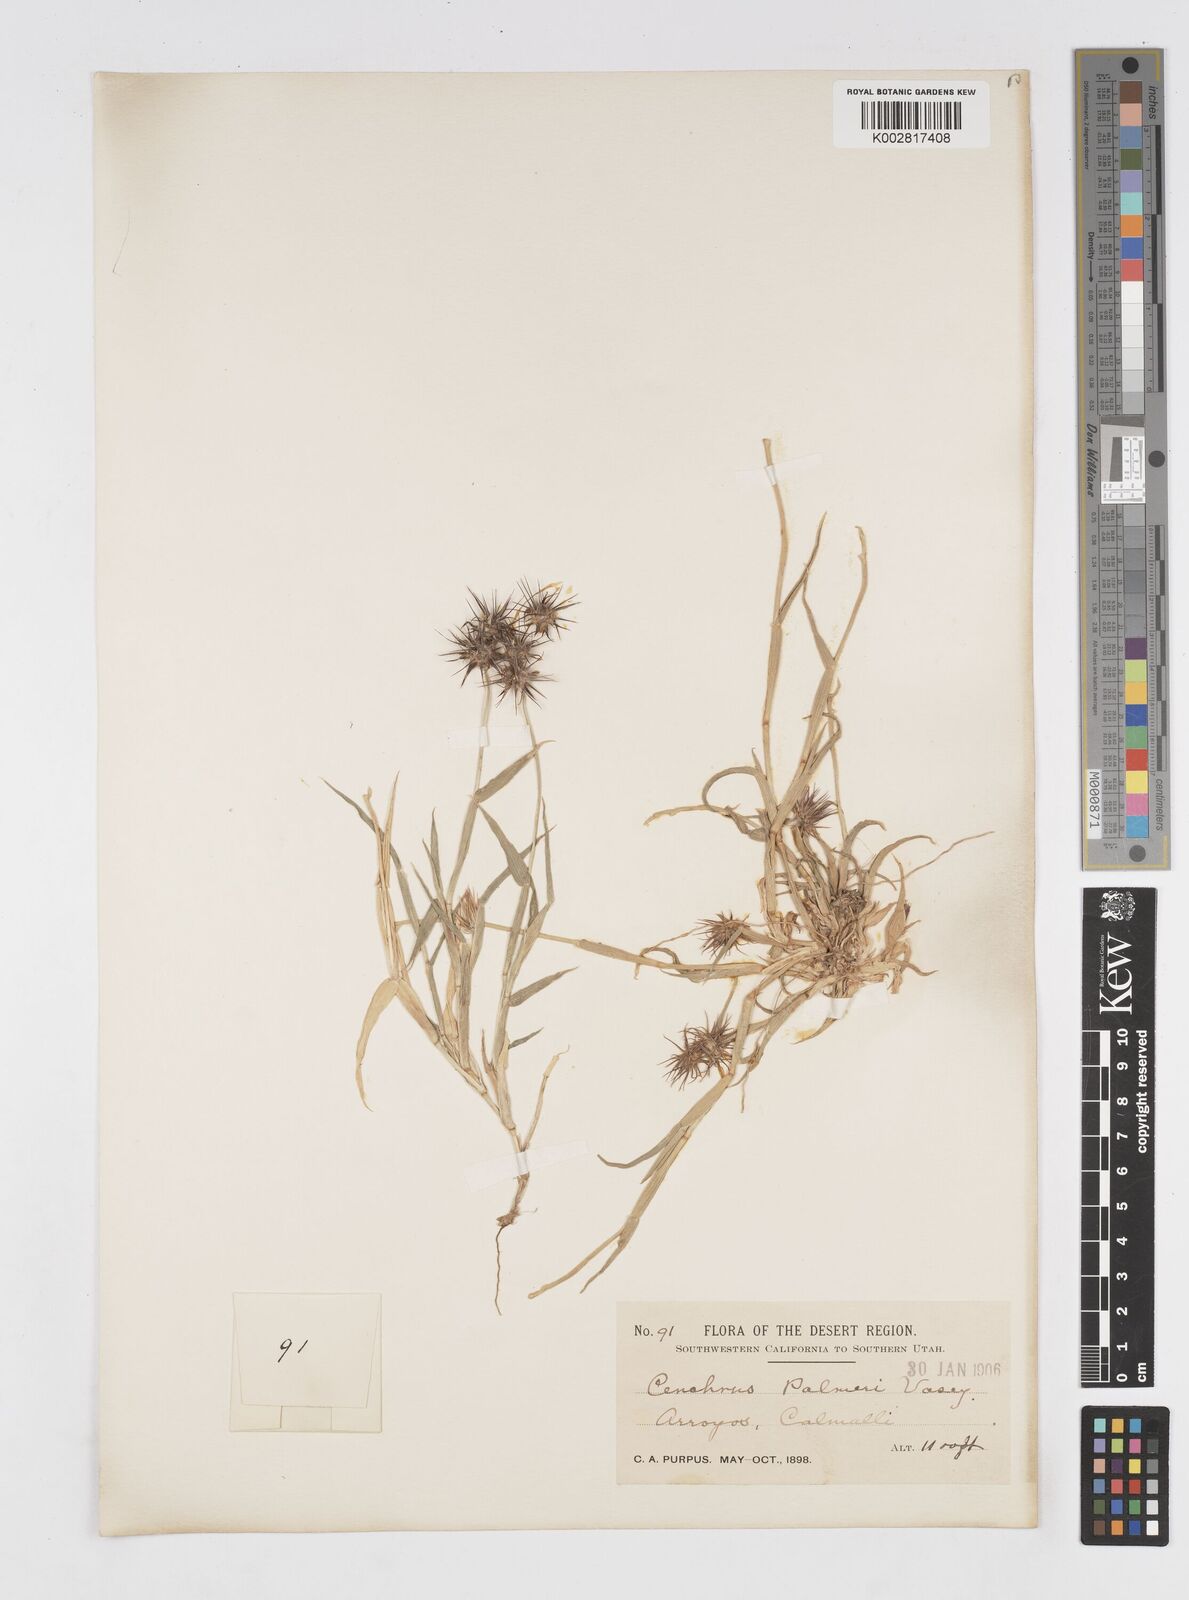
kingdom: Plantae
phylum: Tracheophyta
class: Liliopsida
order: Poales
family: Poaceae
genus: Cenchrus
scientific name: Cenchrus palmeri
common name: Giant sandbur
